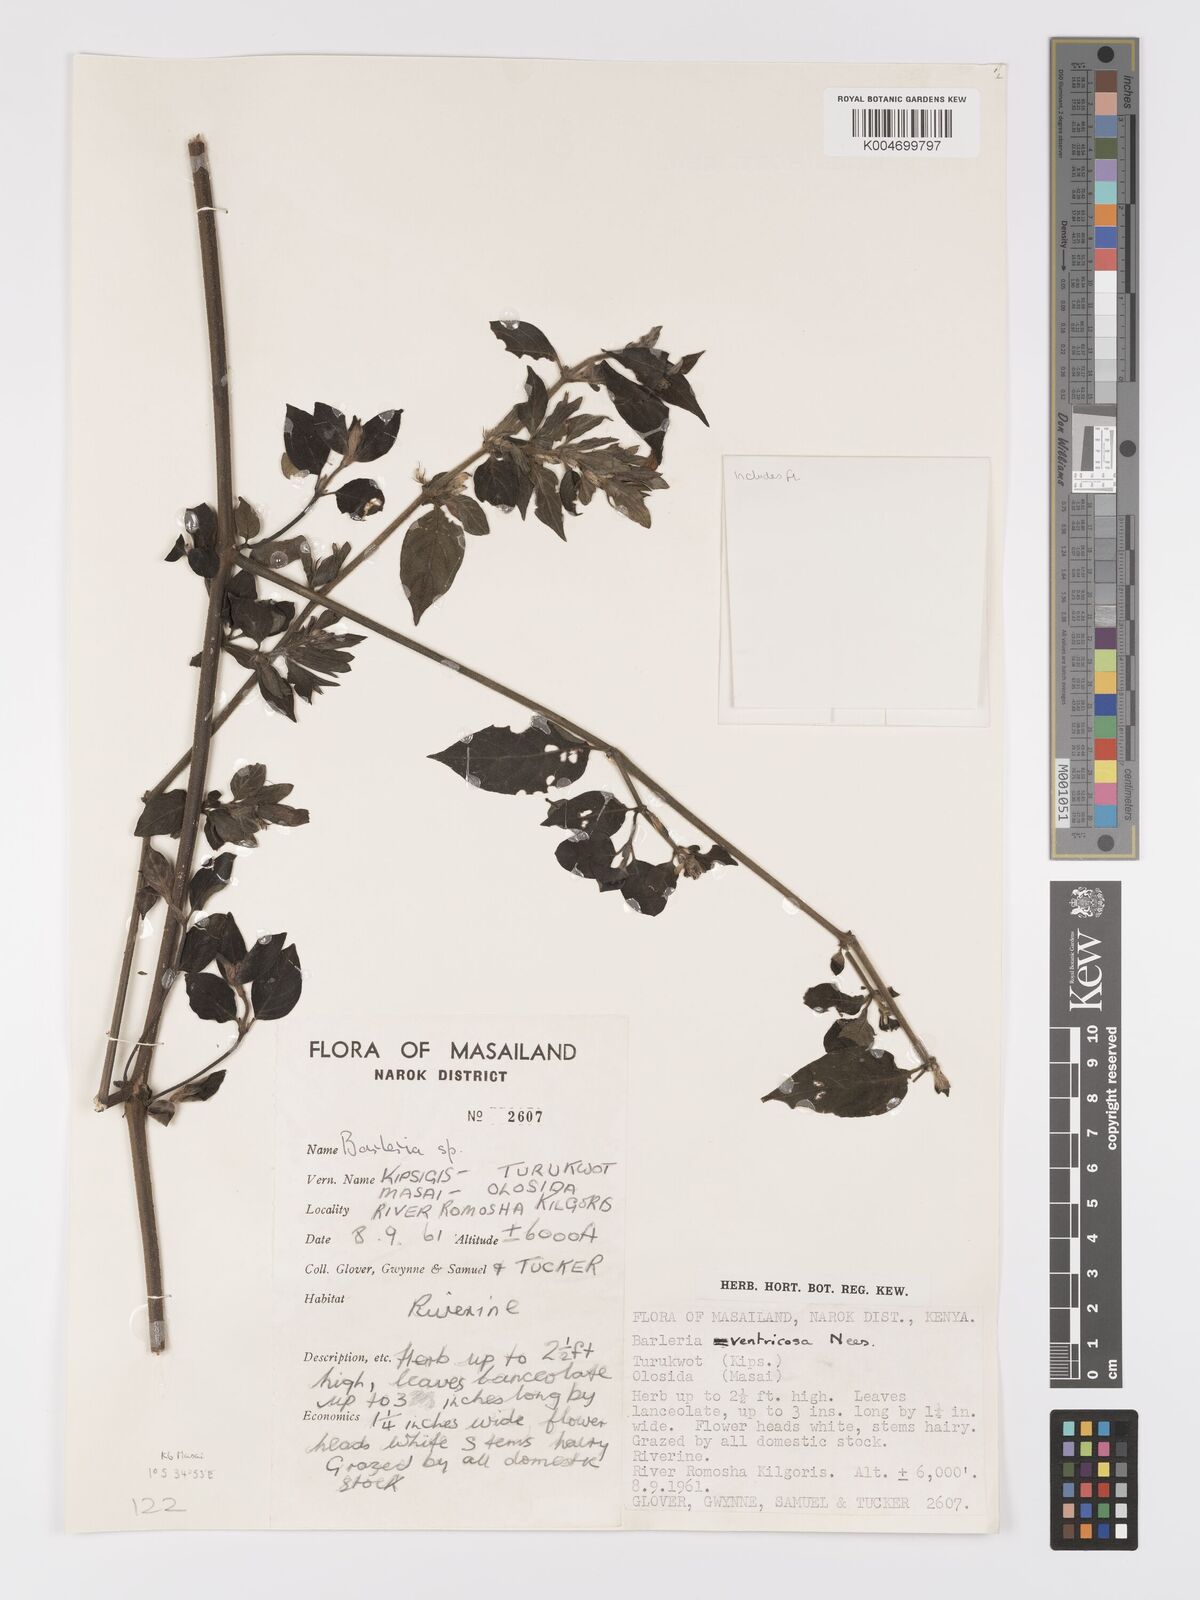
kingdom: Plantae
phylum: Tracheophyta
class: Magnoliopsida
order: Lamiales
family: Acanthaceae
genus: Barleria
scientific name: Barleria ventricosa
